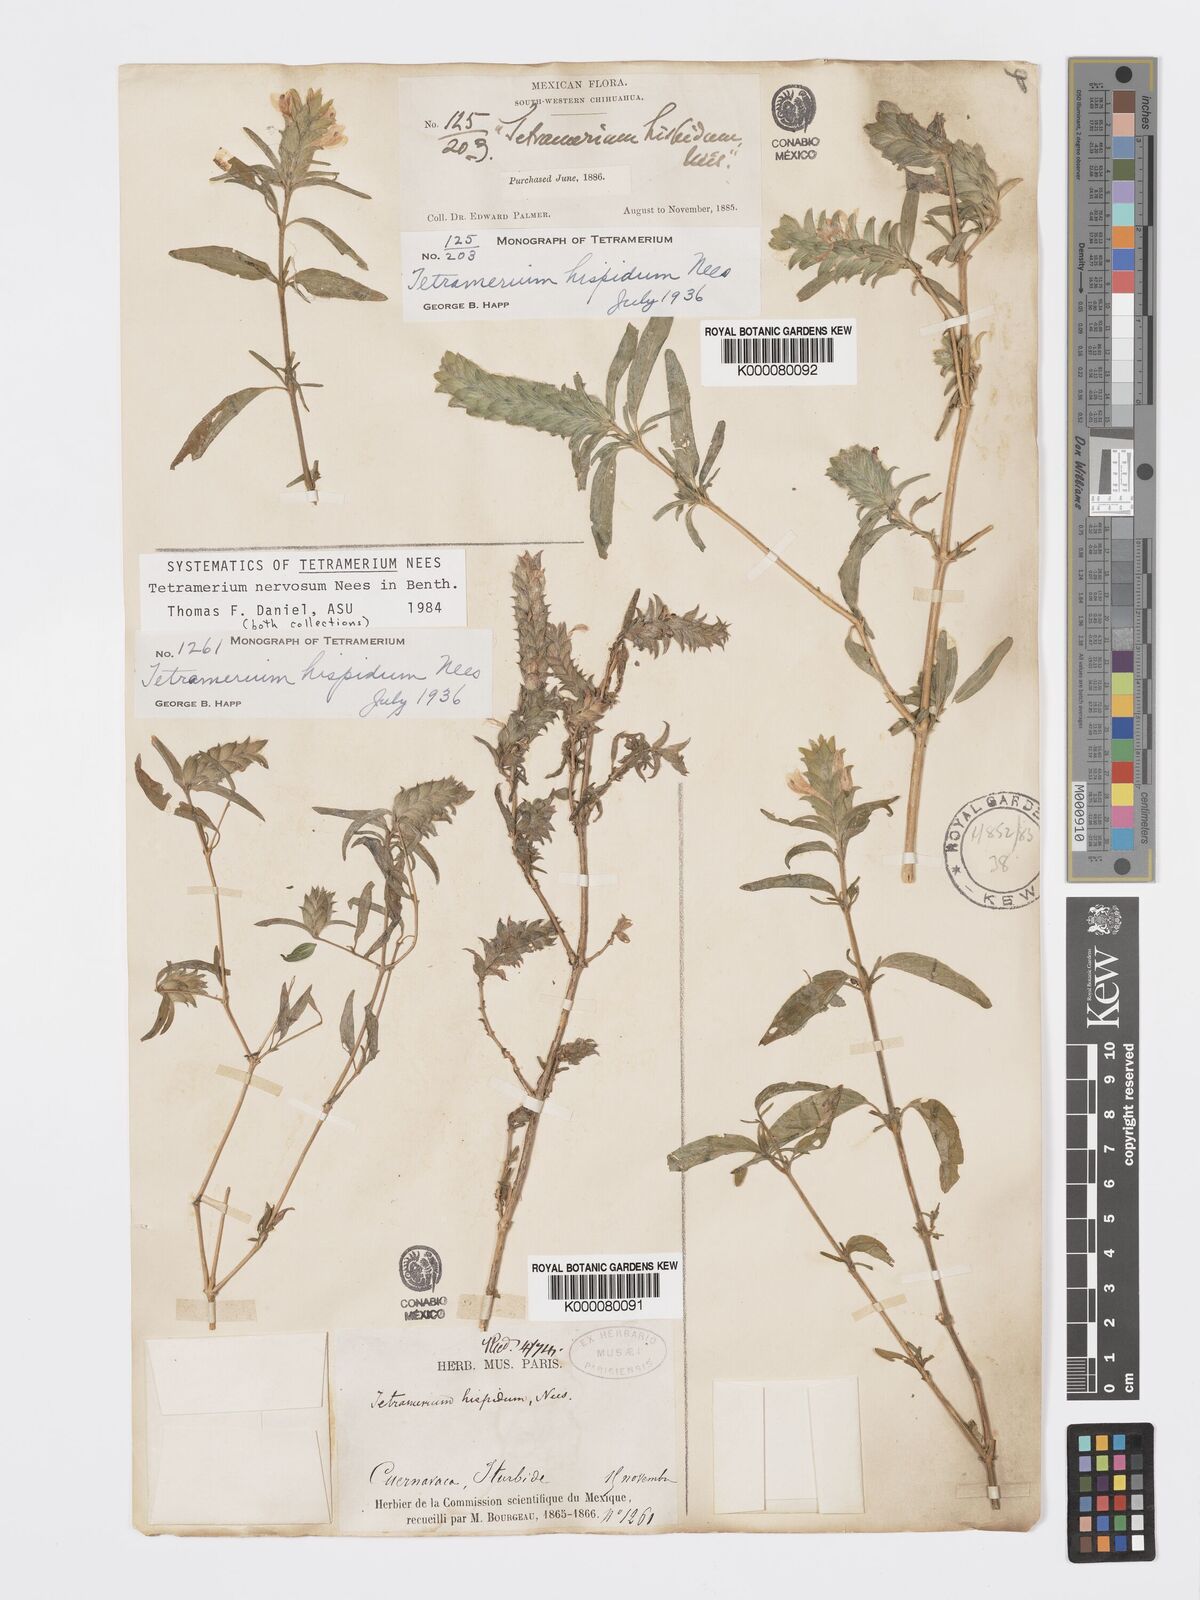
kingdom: Plantae
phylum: Tracheophyta
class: Magnoliopsida
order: Lamiales
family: Acanthaceae
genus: Tetramerium
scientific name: Tetramerium nervosum
